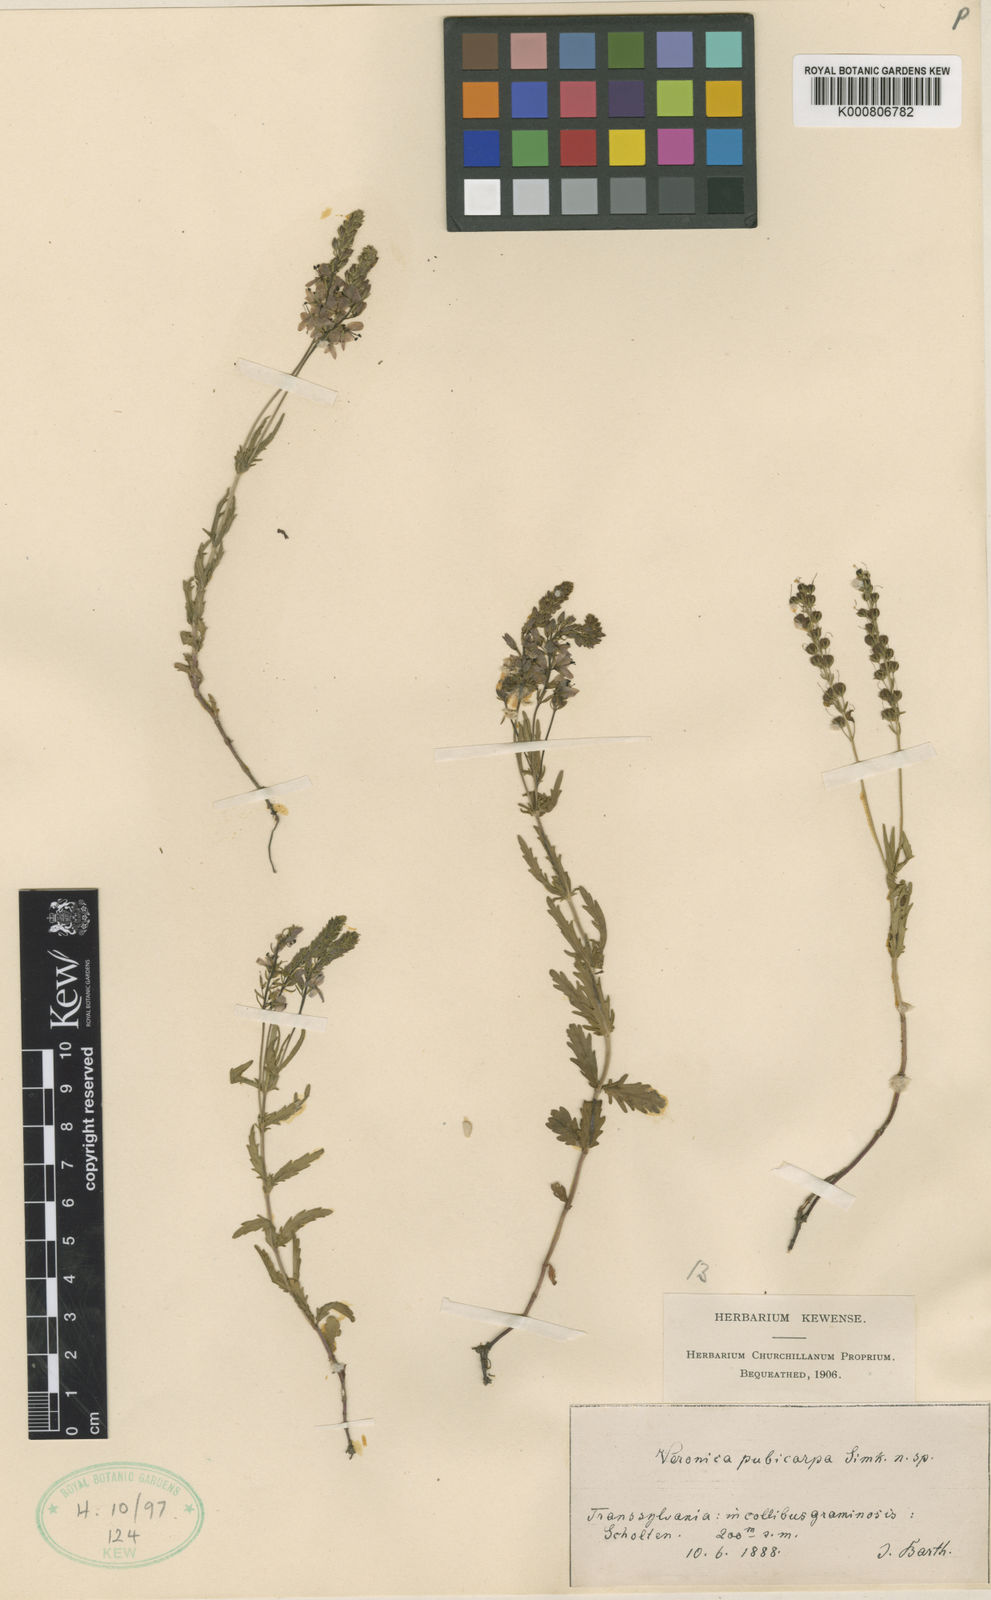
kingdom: Plantae
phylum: Tracheophyta
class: Magnoliopsida
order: Lamiales
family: Plantaginaceae
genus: Veronica
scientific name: Veronica prostrata
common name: Prostrate speedwell
